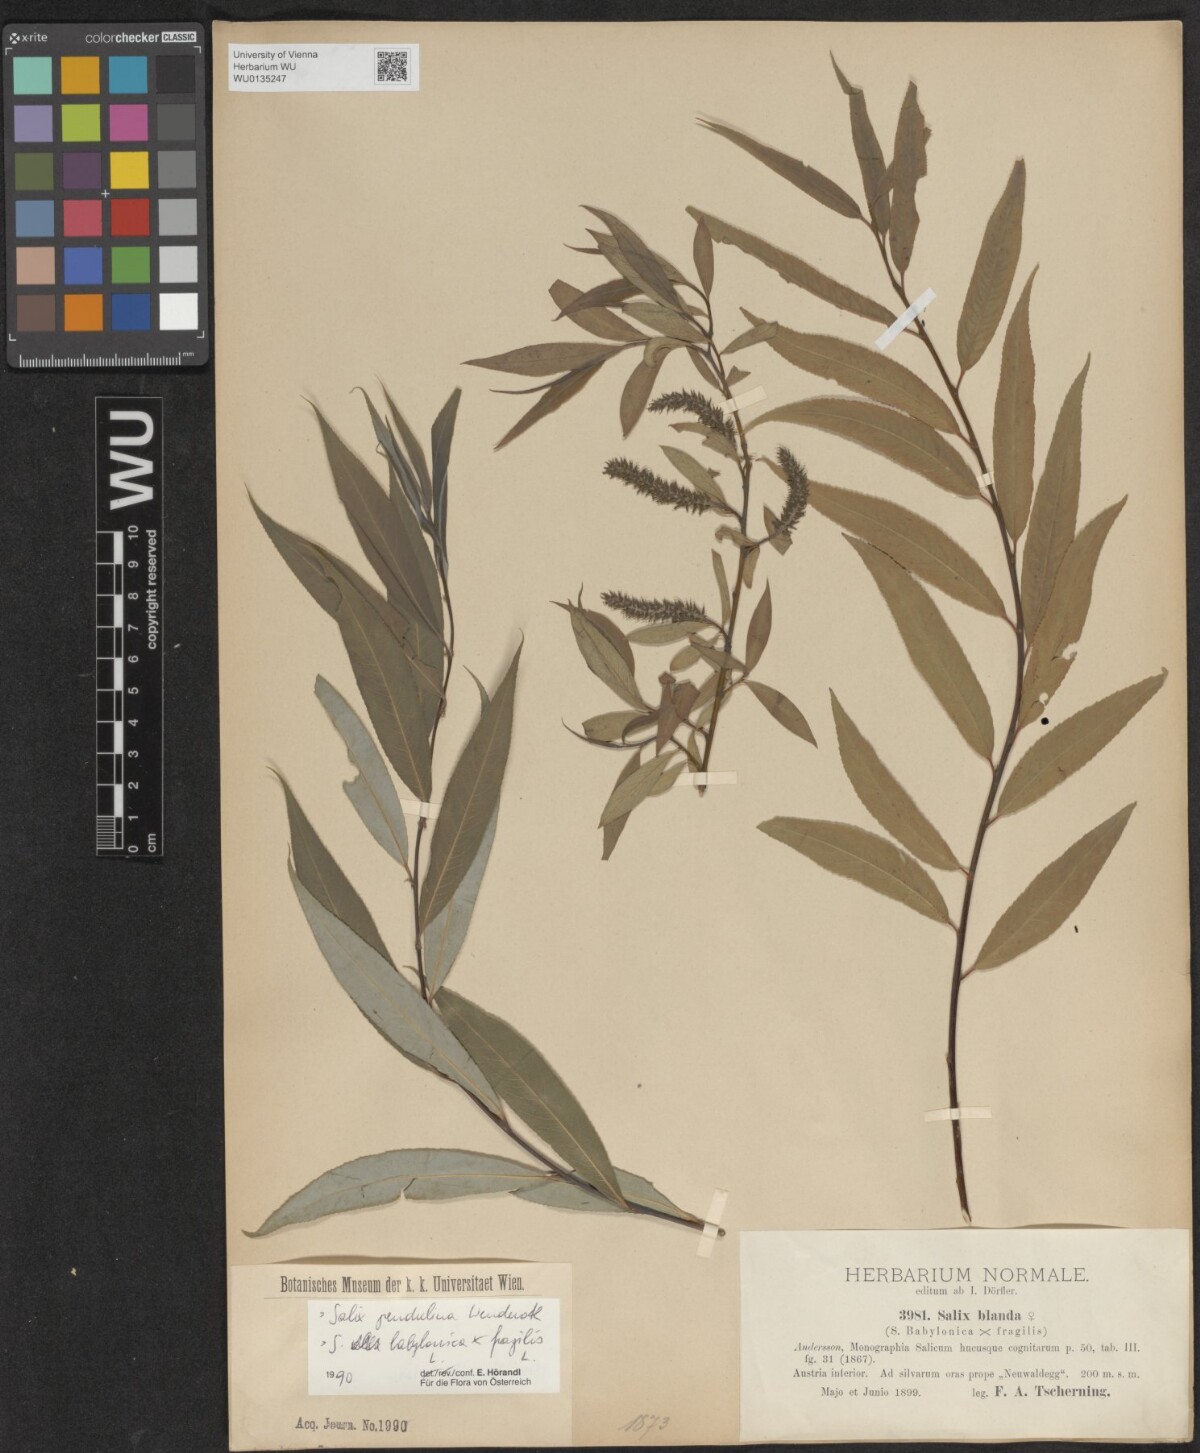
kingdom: Plantae
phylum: Tracheophyta
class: Magnoliopsida
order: Malpighiales
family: Salicaceae
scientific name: Salicaceae
